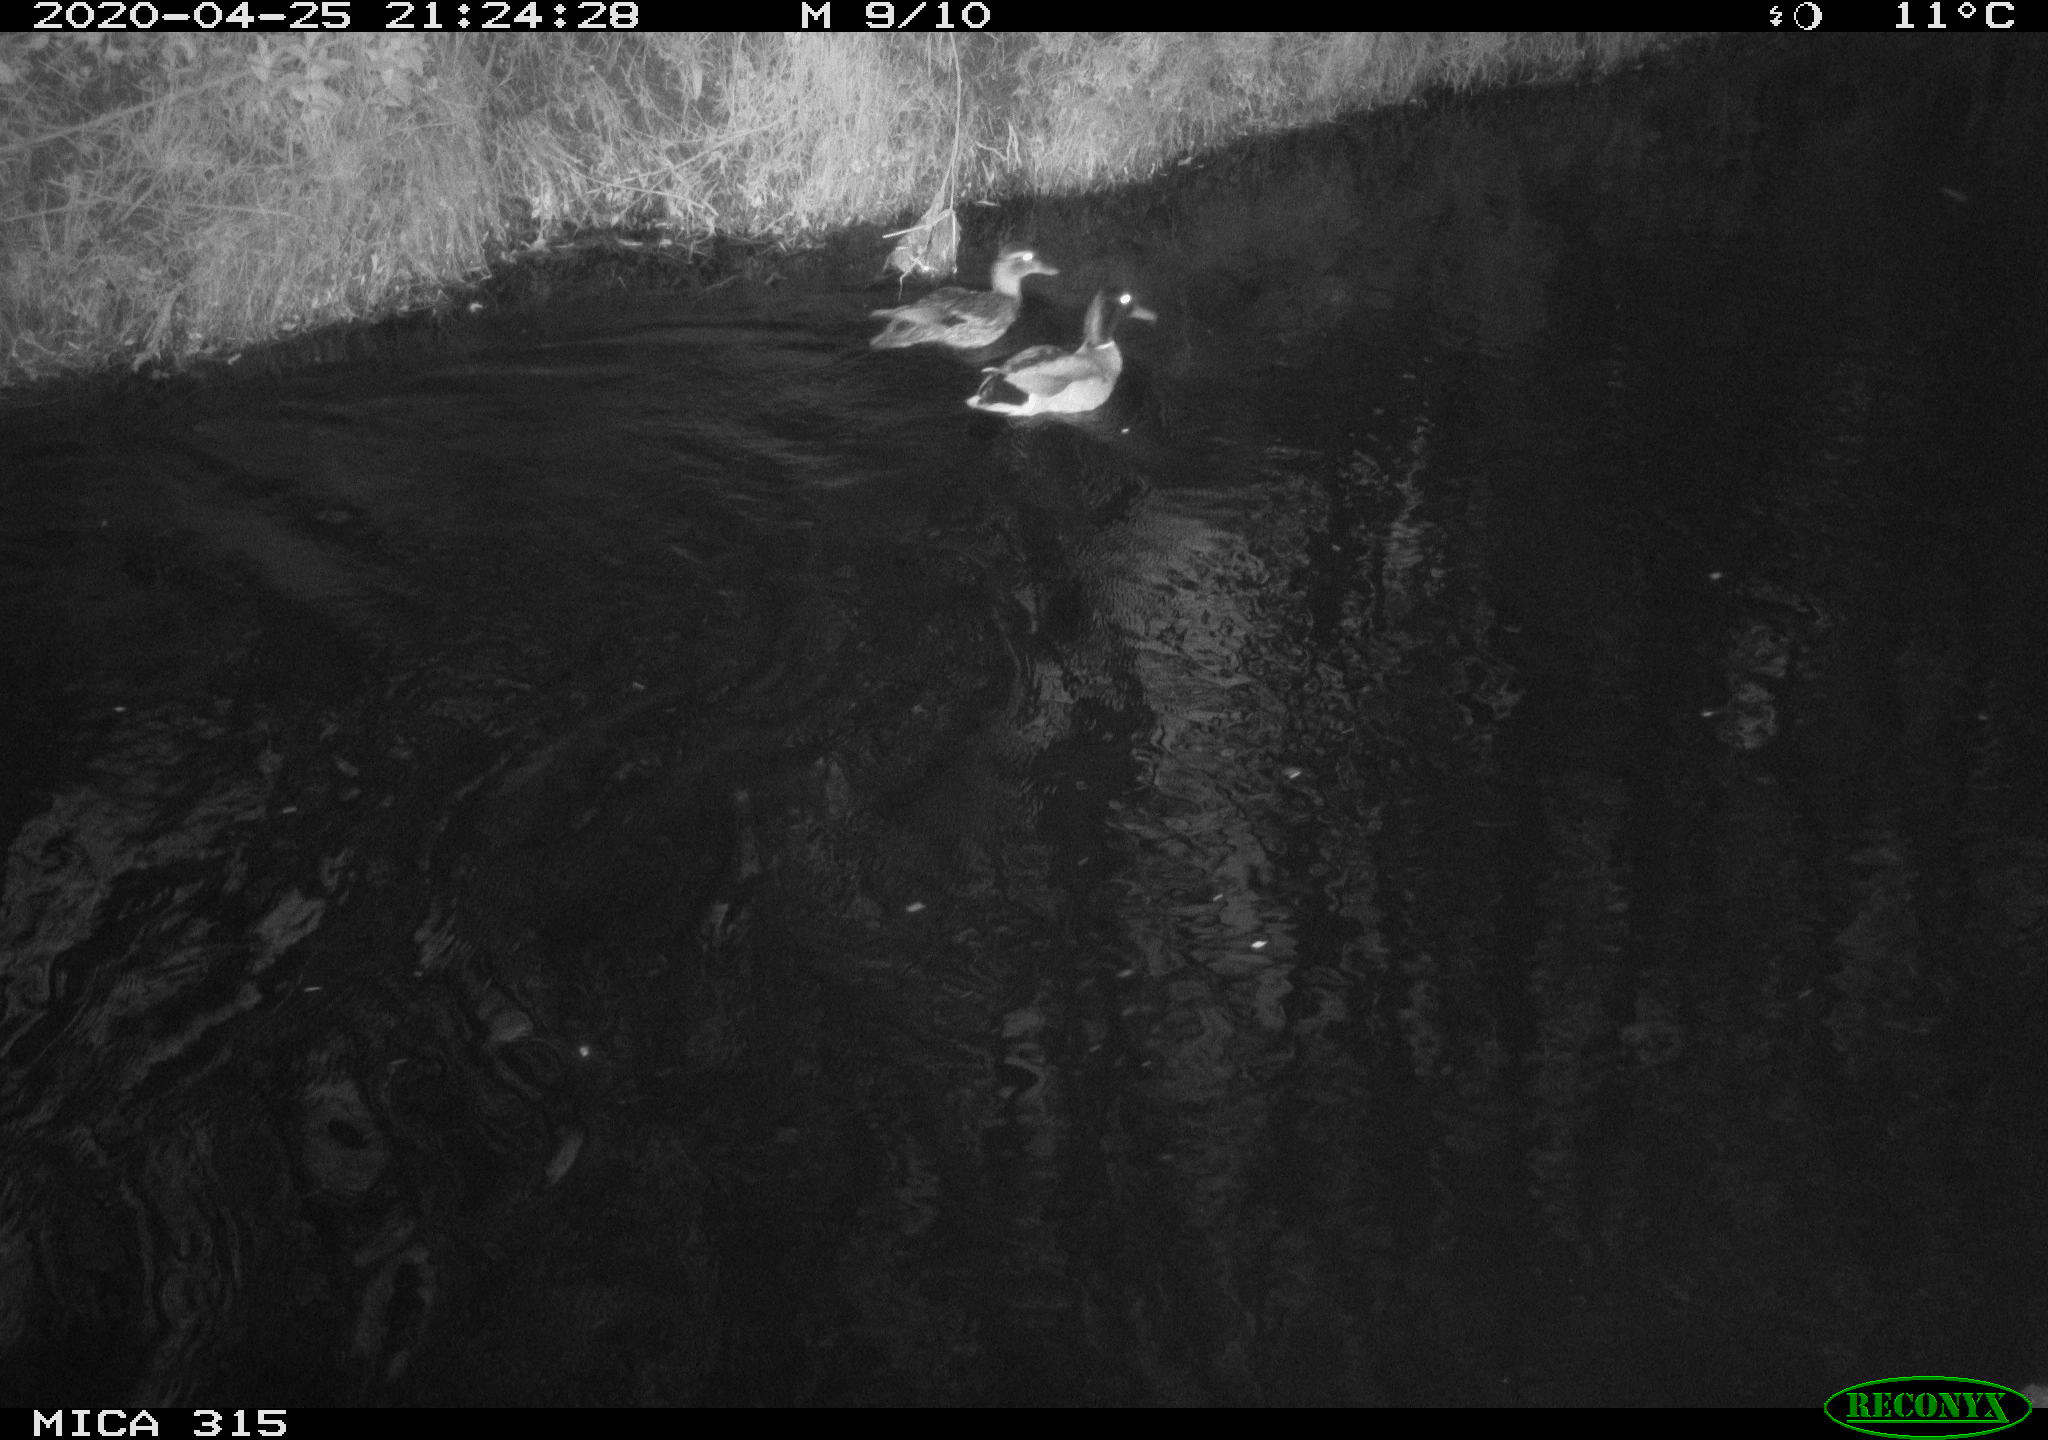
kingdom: Animalia
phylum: Chordata
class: Aves
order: Anseriformes
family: Anatidae
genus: Anas
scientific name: Anas platyrhynchos
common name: Mallard
